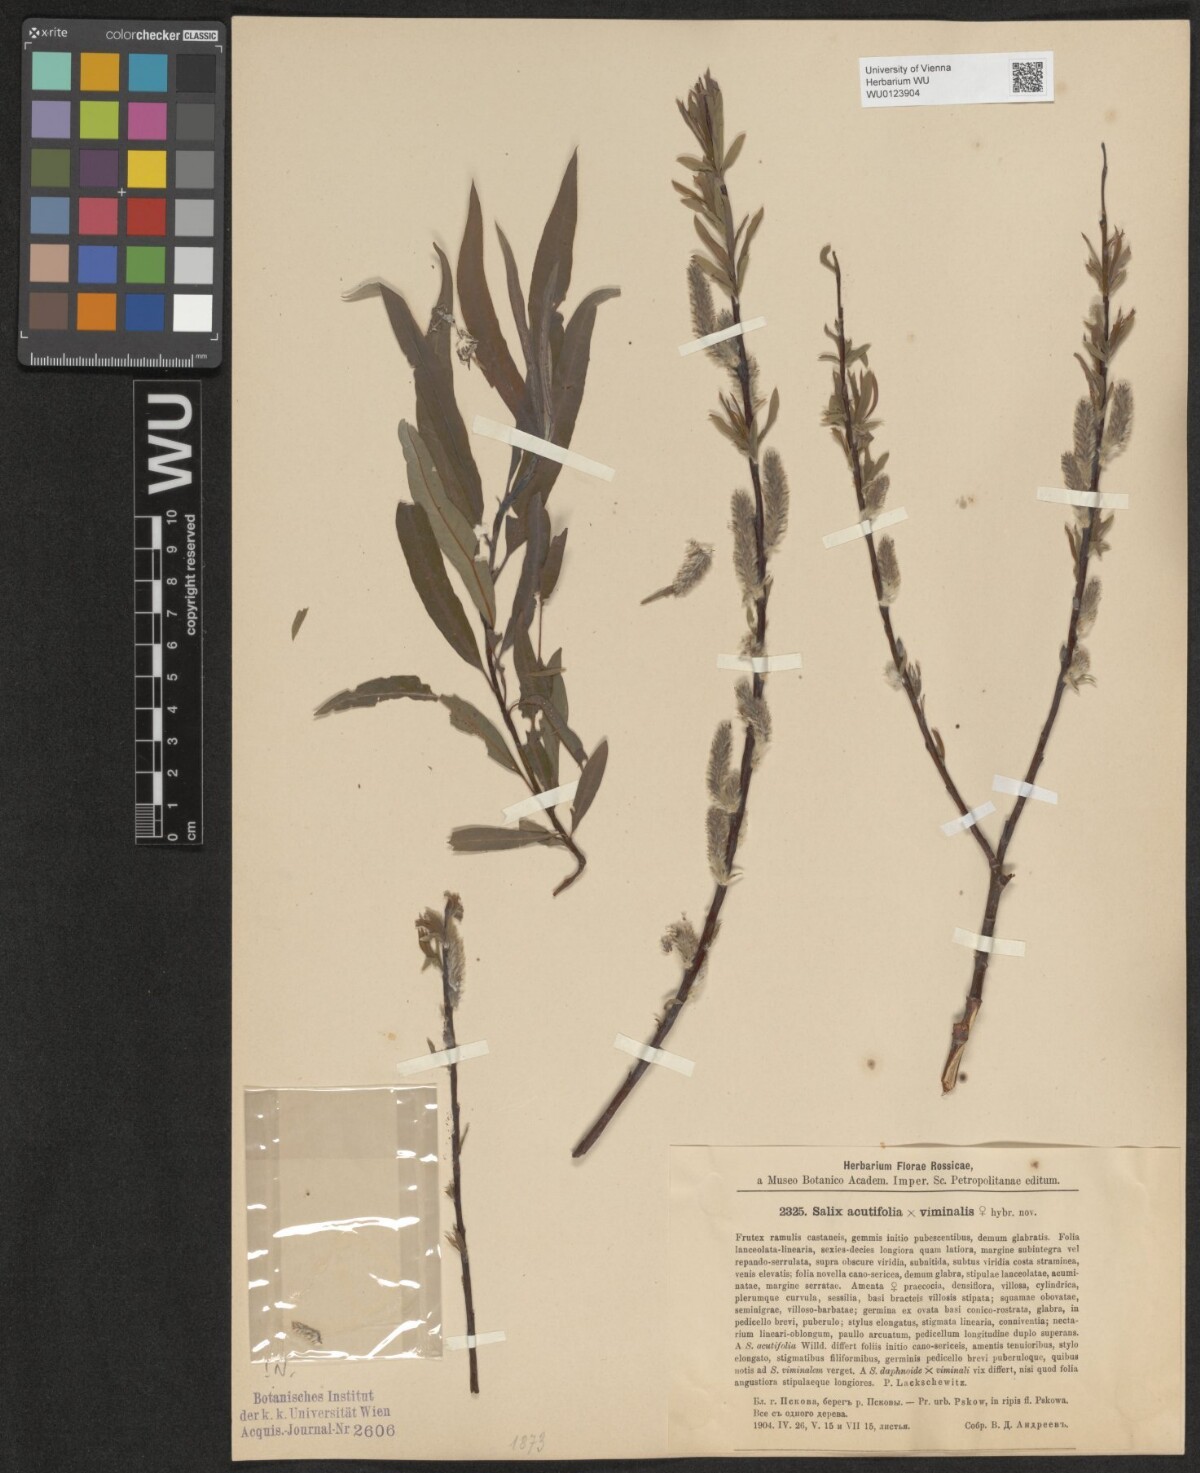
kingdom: Plantae
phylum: Tracheophyta
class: Magnoliopsida
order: Malpighiales
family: Salicaceae
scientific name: Salicaceae
